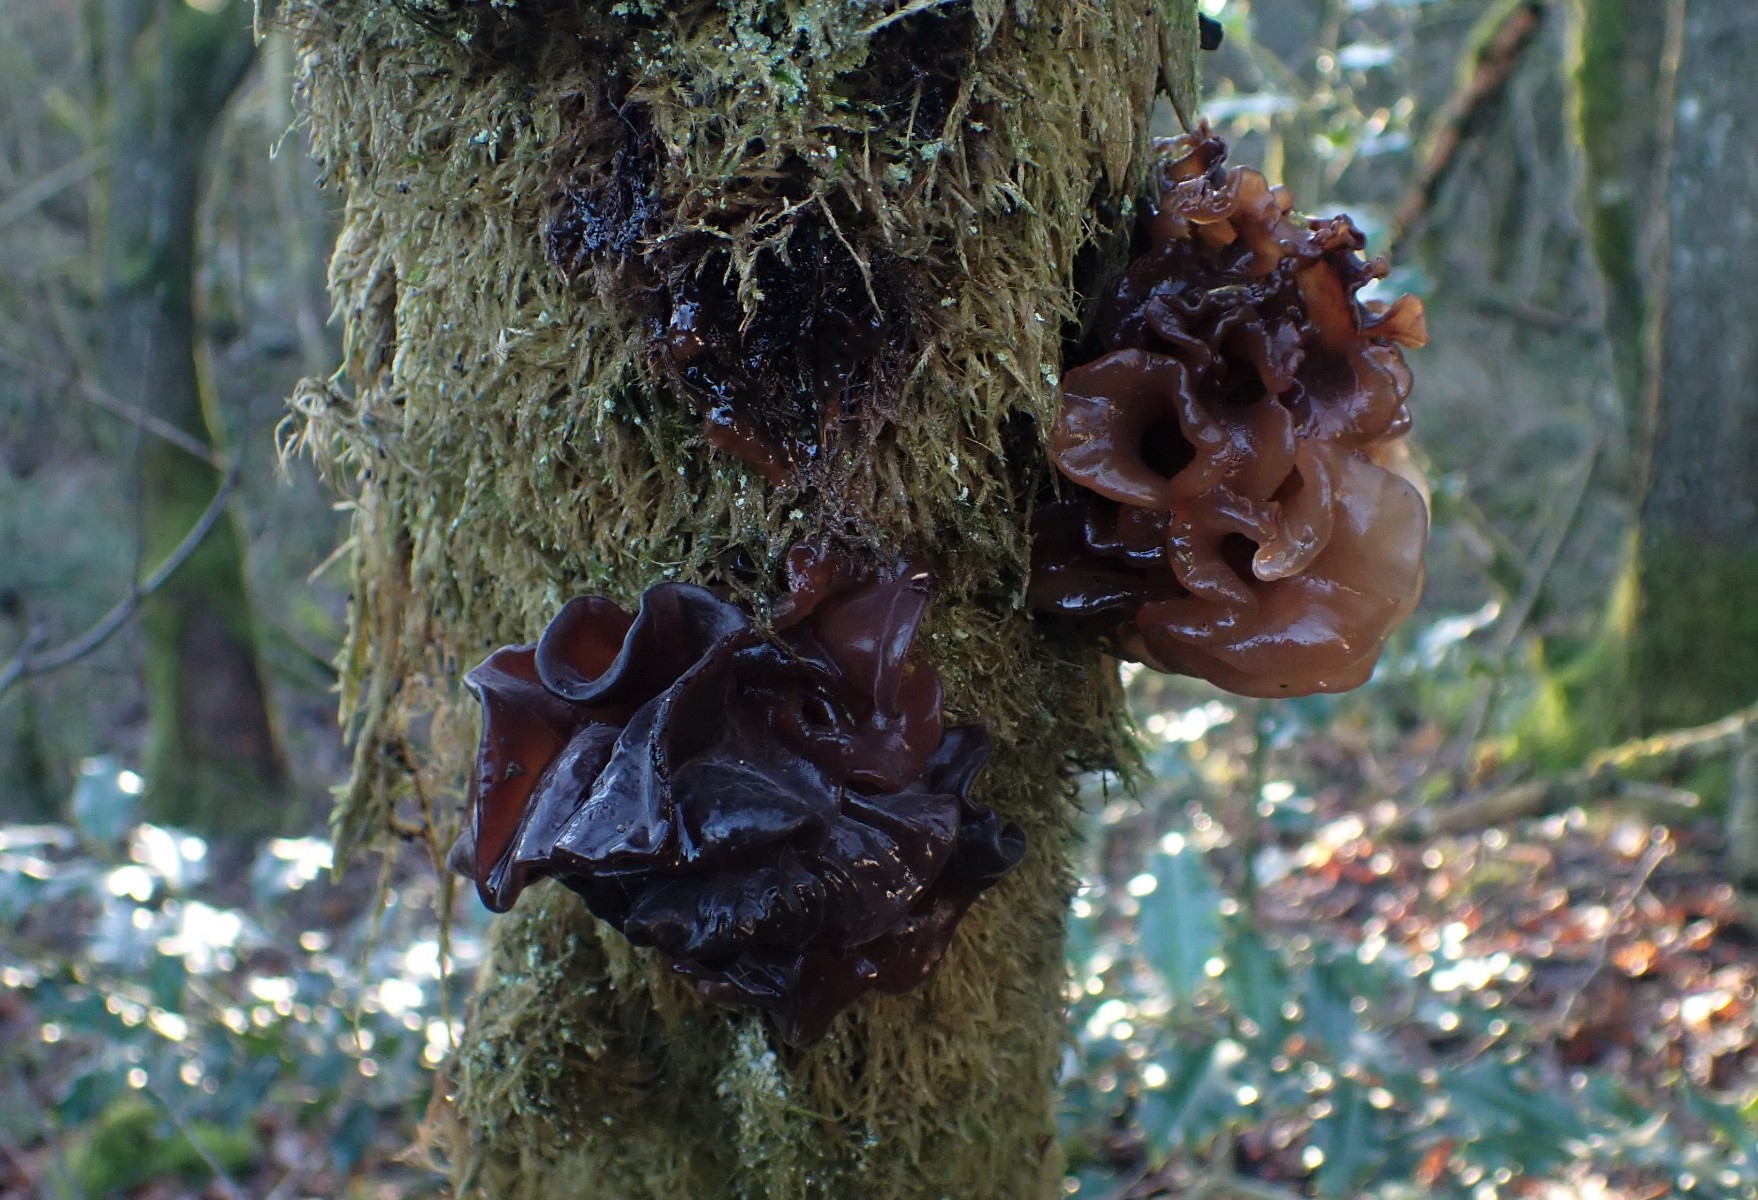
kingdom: Fungi
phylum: Basidiomycota
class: Tremellomycetes
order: Tremellales
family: Tremellaceae
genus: Phaeotremella
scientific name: Phaeotremella frondosa
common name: kæmpe-bævresvamp
